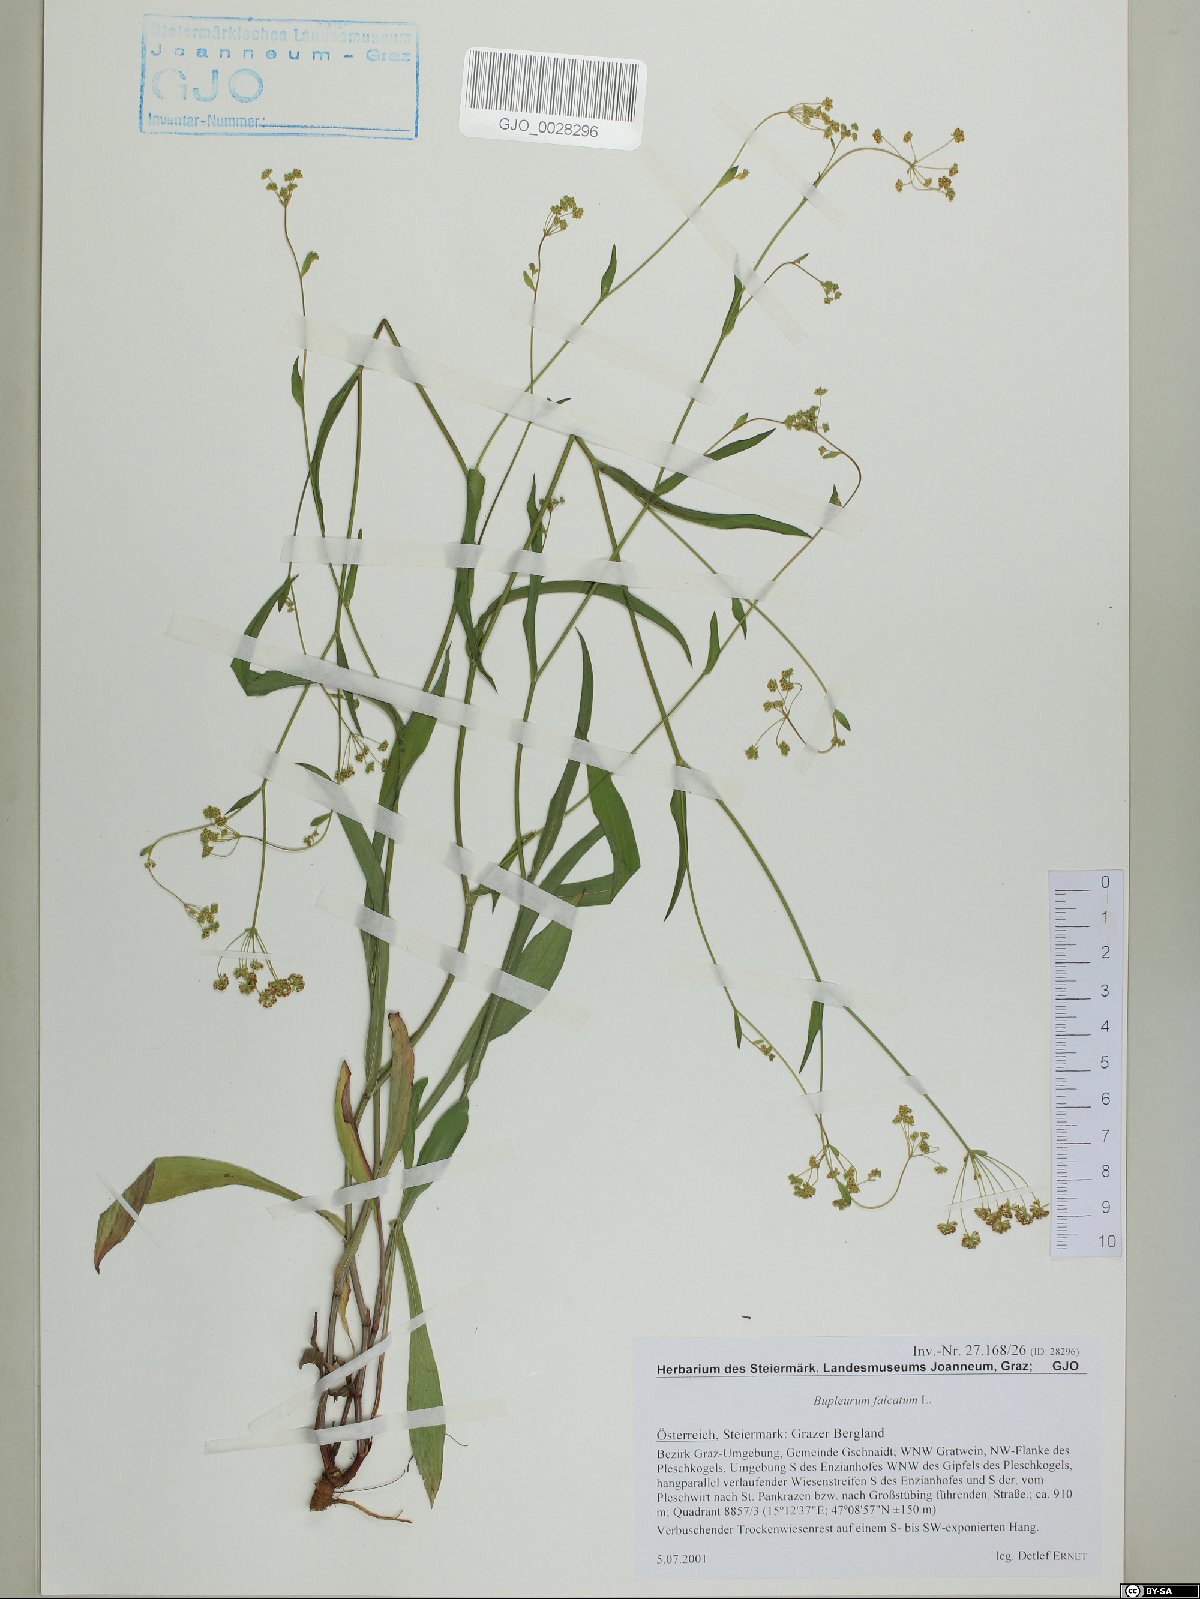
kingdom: Plantae
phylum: Tracheophyta
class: Magnoliopsida
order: Apiales
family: Apiaceae
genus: Bupleurum
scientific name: Bupleurum falcatum
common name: Sickle-leaved hare's-ear
